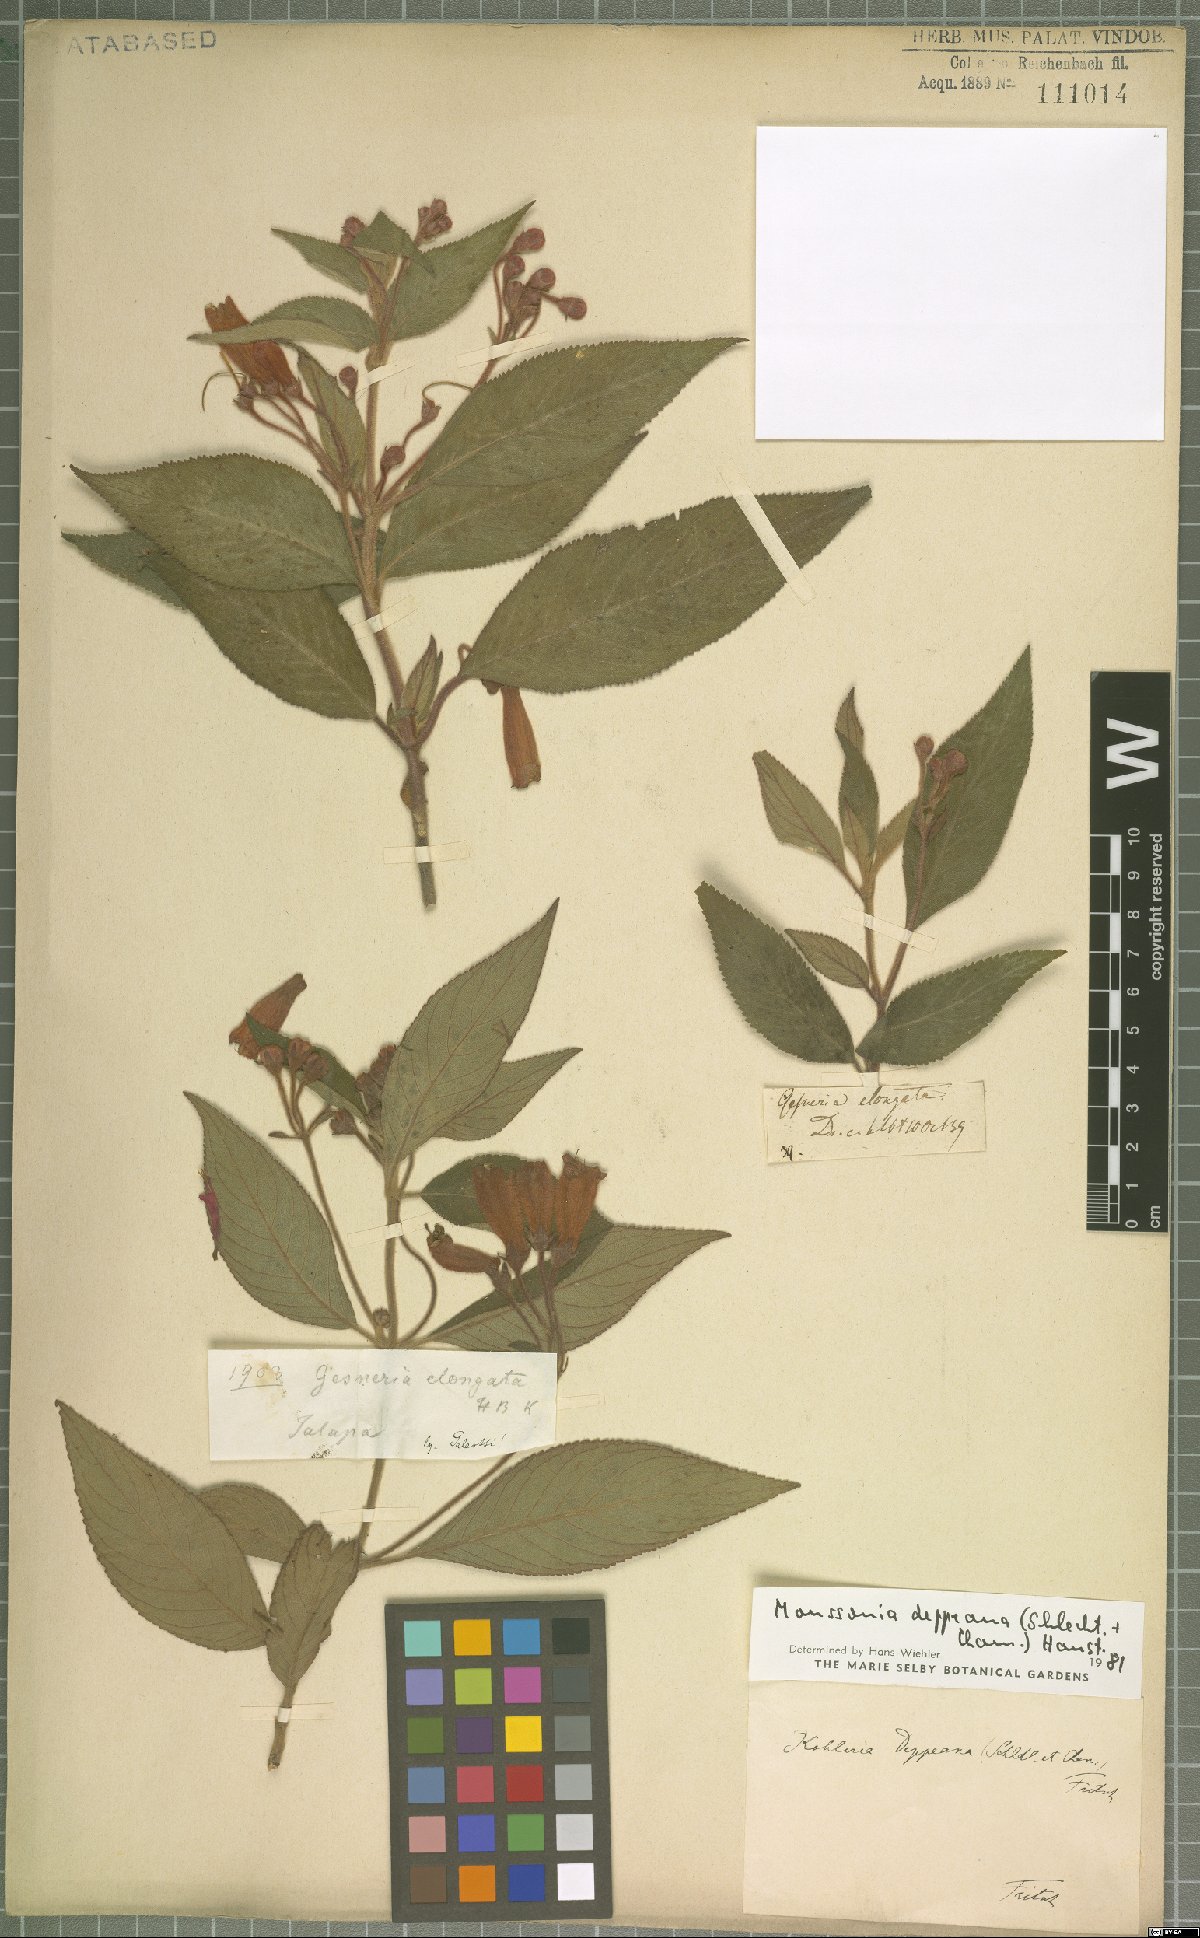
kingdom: Plantae
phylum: Tracheophyta
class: Magnoliopsida
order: Lamiales
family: Gesneriaceae
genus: Moussonia
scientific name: Moussonia deppeana
